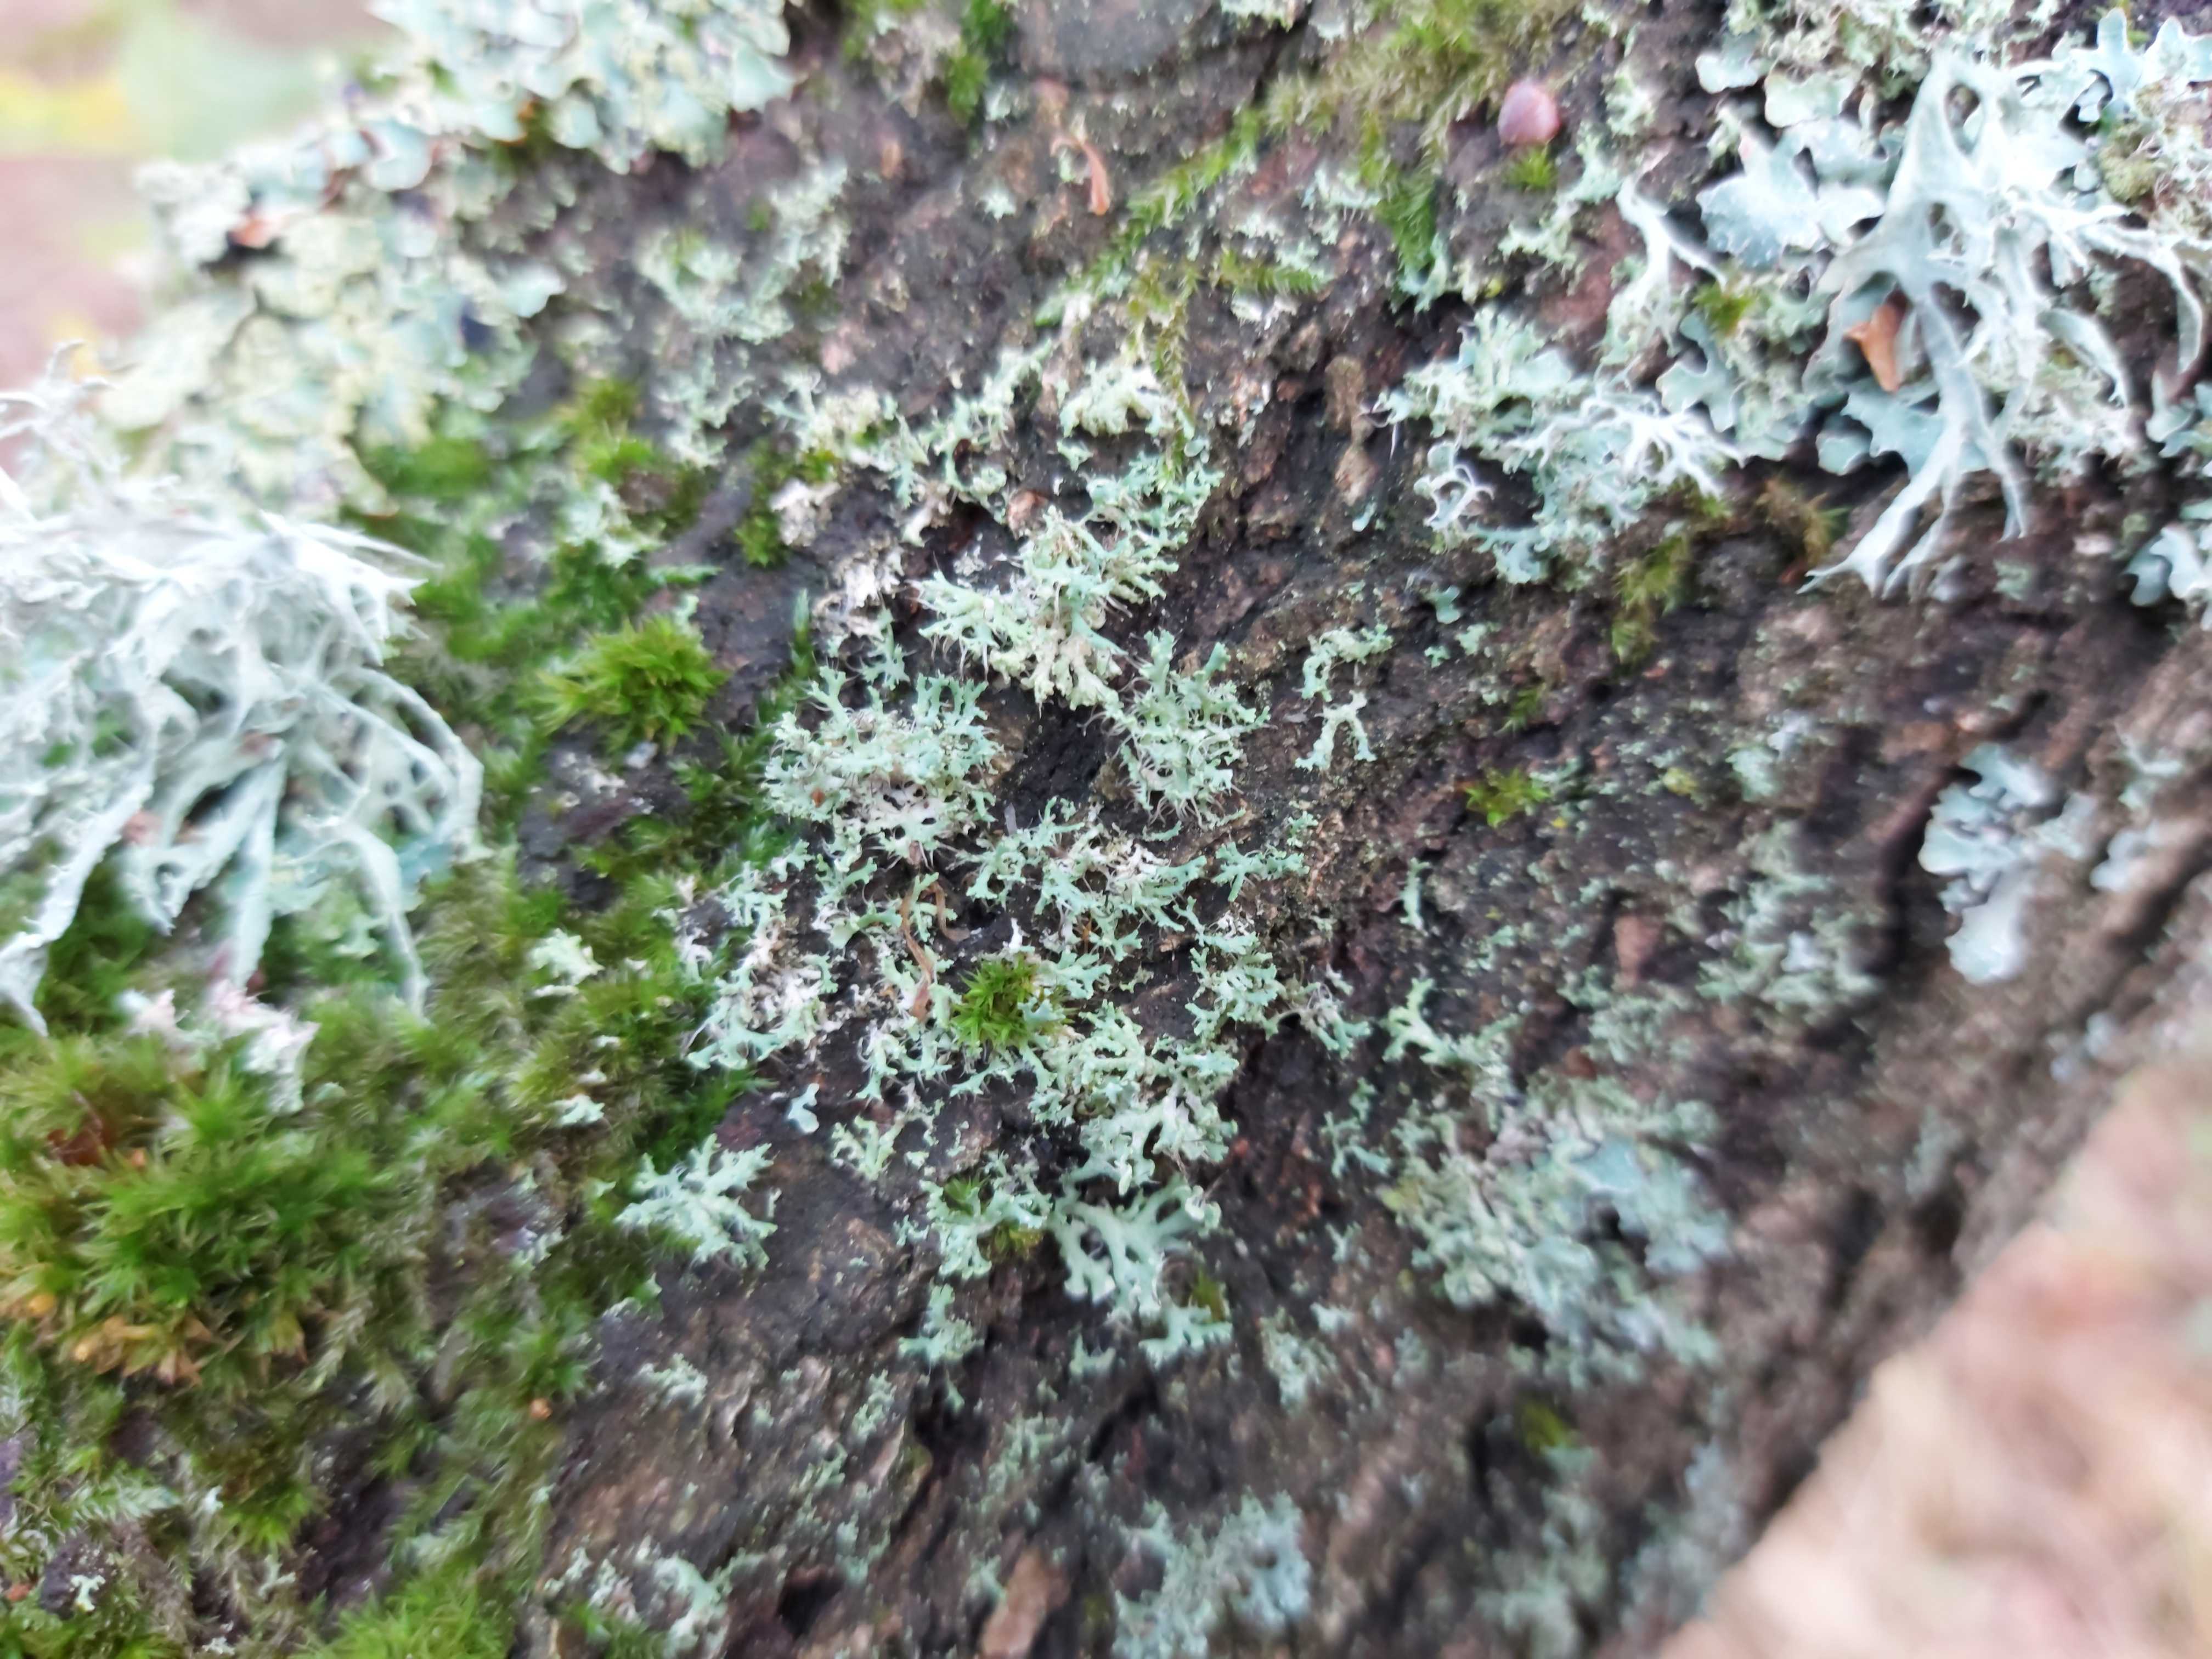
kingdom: Fungi
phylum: Ascomycota
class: Lecanoromycetes
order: Caliciales
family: Physciaceae
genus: Physcia
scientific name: Physcia tenella
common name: spæd rosetlav
